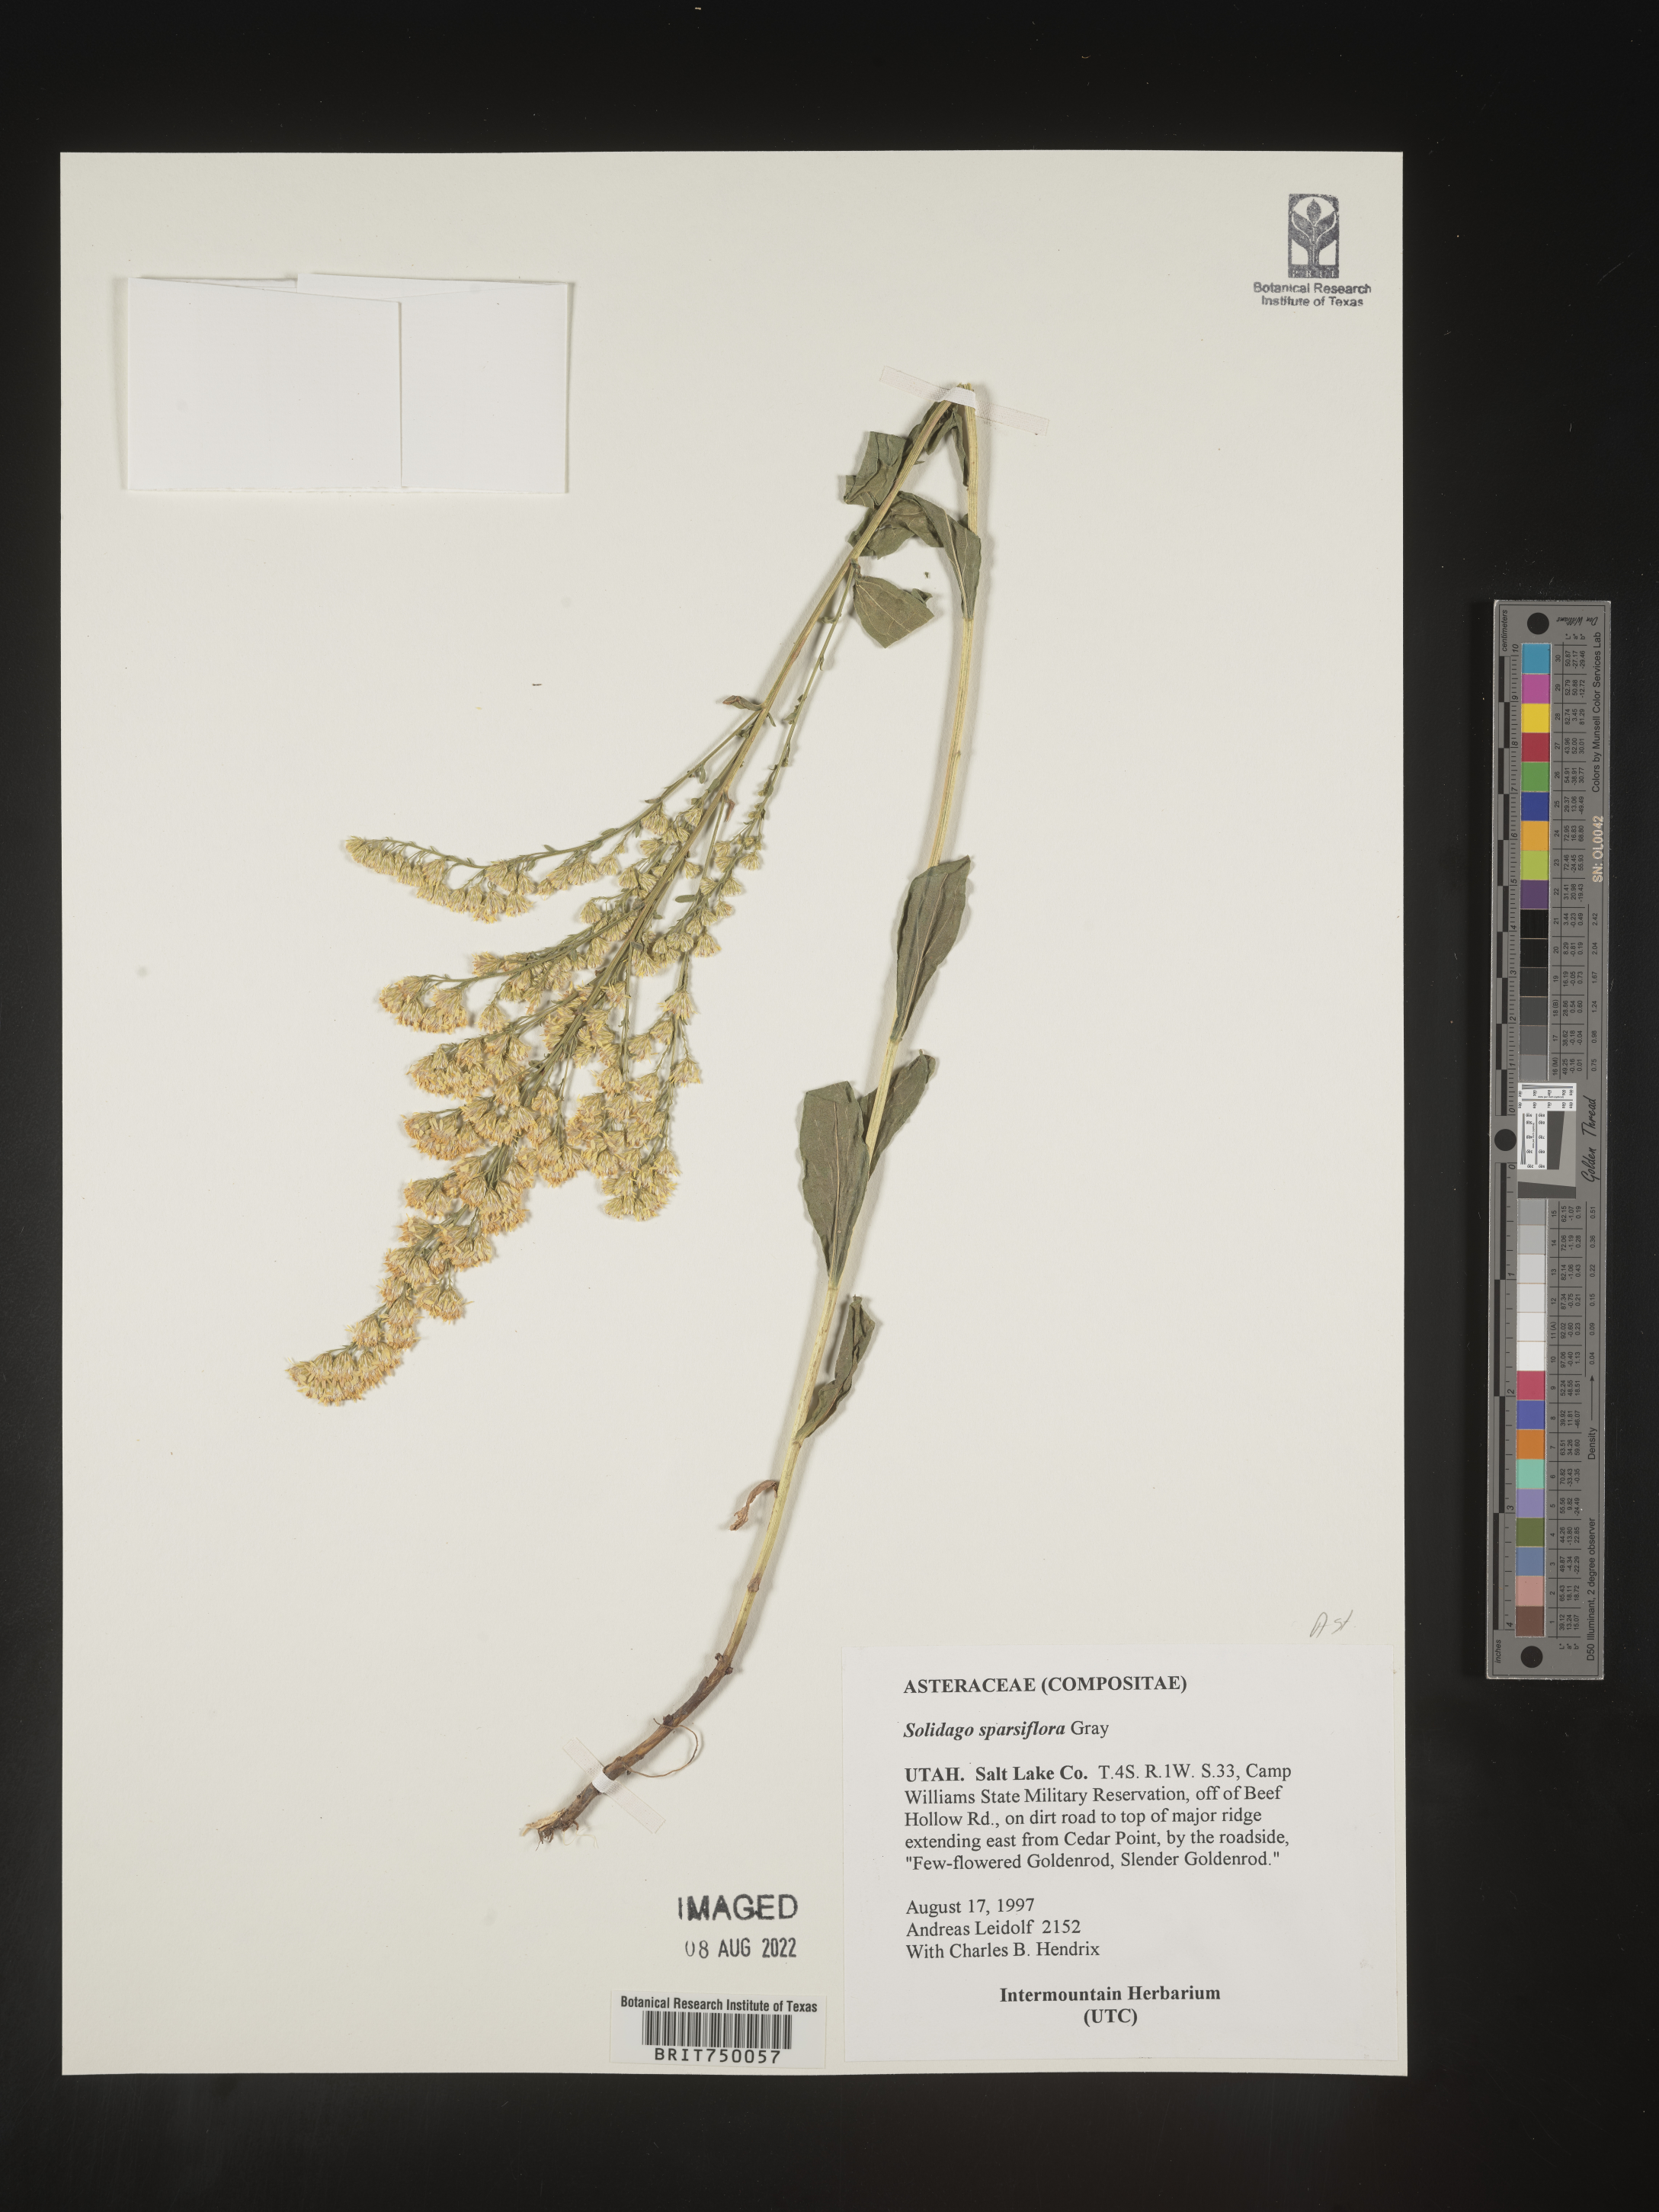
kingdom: Plantae
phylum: Tracheophyta
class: Magnoliopsida
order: Asterales
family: Asteraceae
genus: Solidago
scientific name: Solidago garrettii
